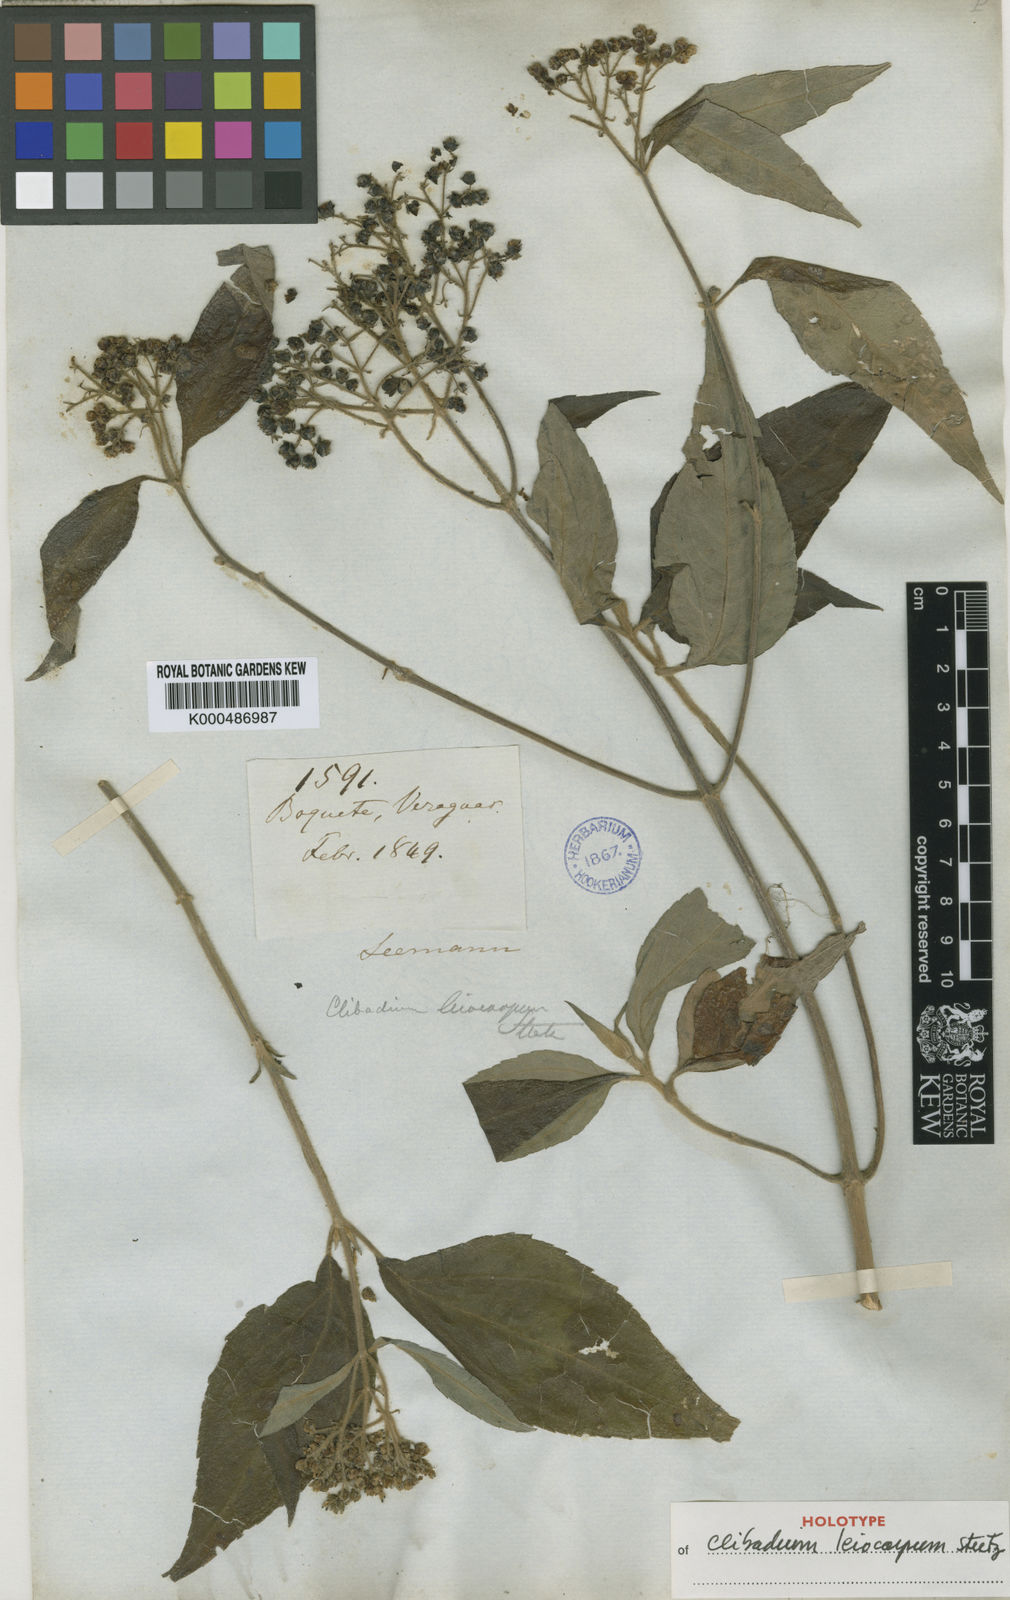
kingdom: Plantae
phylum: Tracheophyta
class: Magnoliopsida
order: Asterales
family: Asteraceae
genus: Clibadium
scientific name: Clibadium leiocarpum
